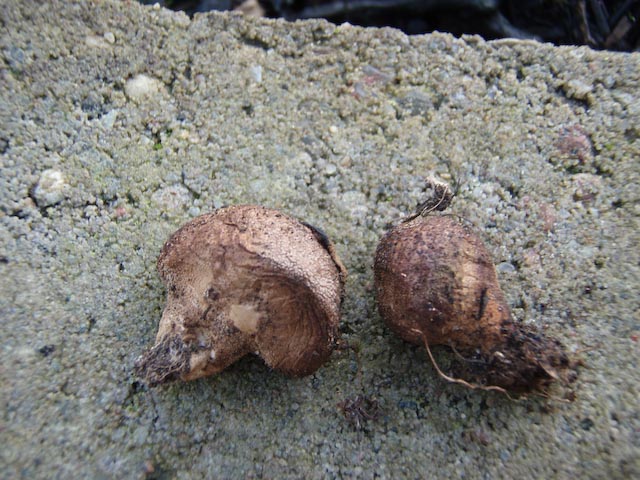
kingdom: Fungi
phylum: Basidiomycota
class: Agaricomycetes
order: Agaricales
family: Lycoperdaceae
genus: Lycoperdon
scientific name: Lycoperdon lividum
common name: mark-støvbold
